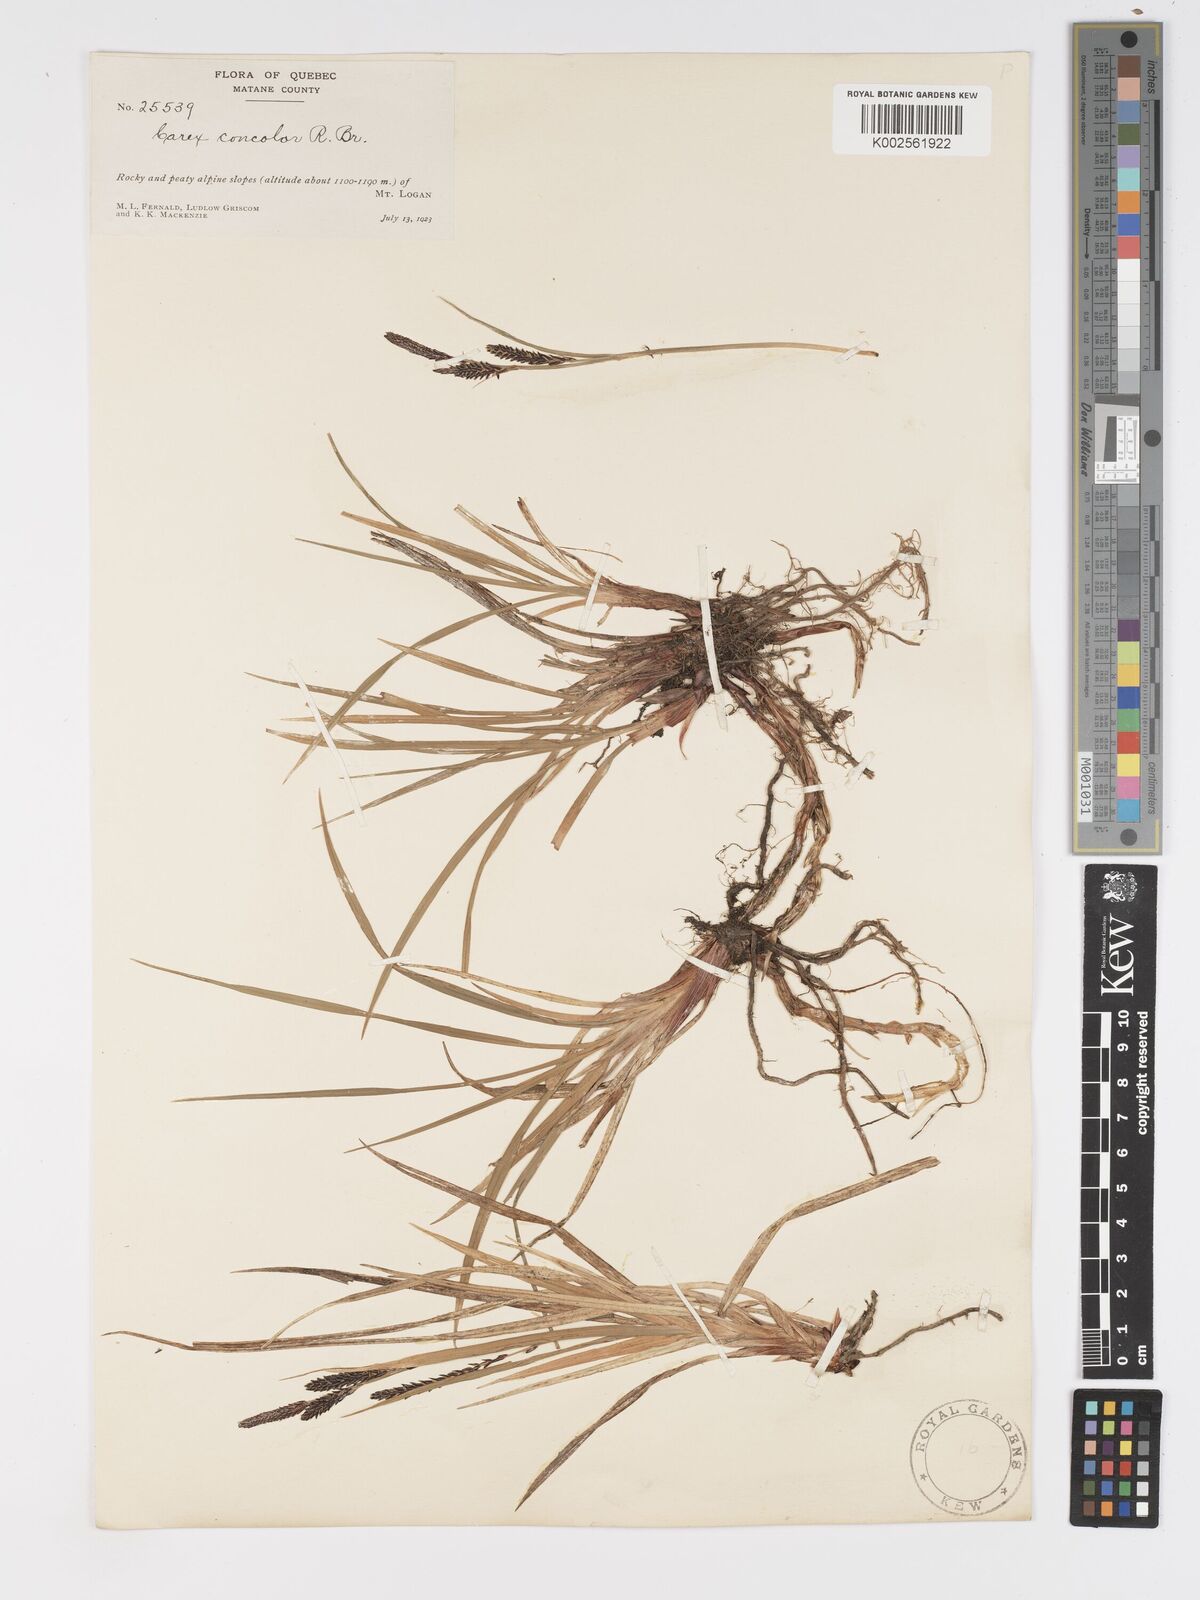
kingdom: Plantae
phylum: Tracheophyta
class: Liliopsida
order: Poales
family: Cyperaceae
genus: Carex
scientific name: Carex bigelowii
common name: Stiff sedge
